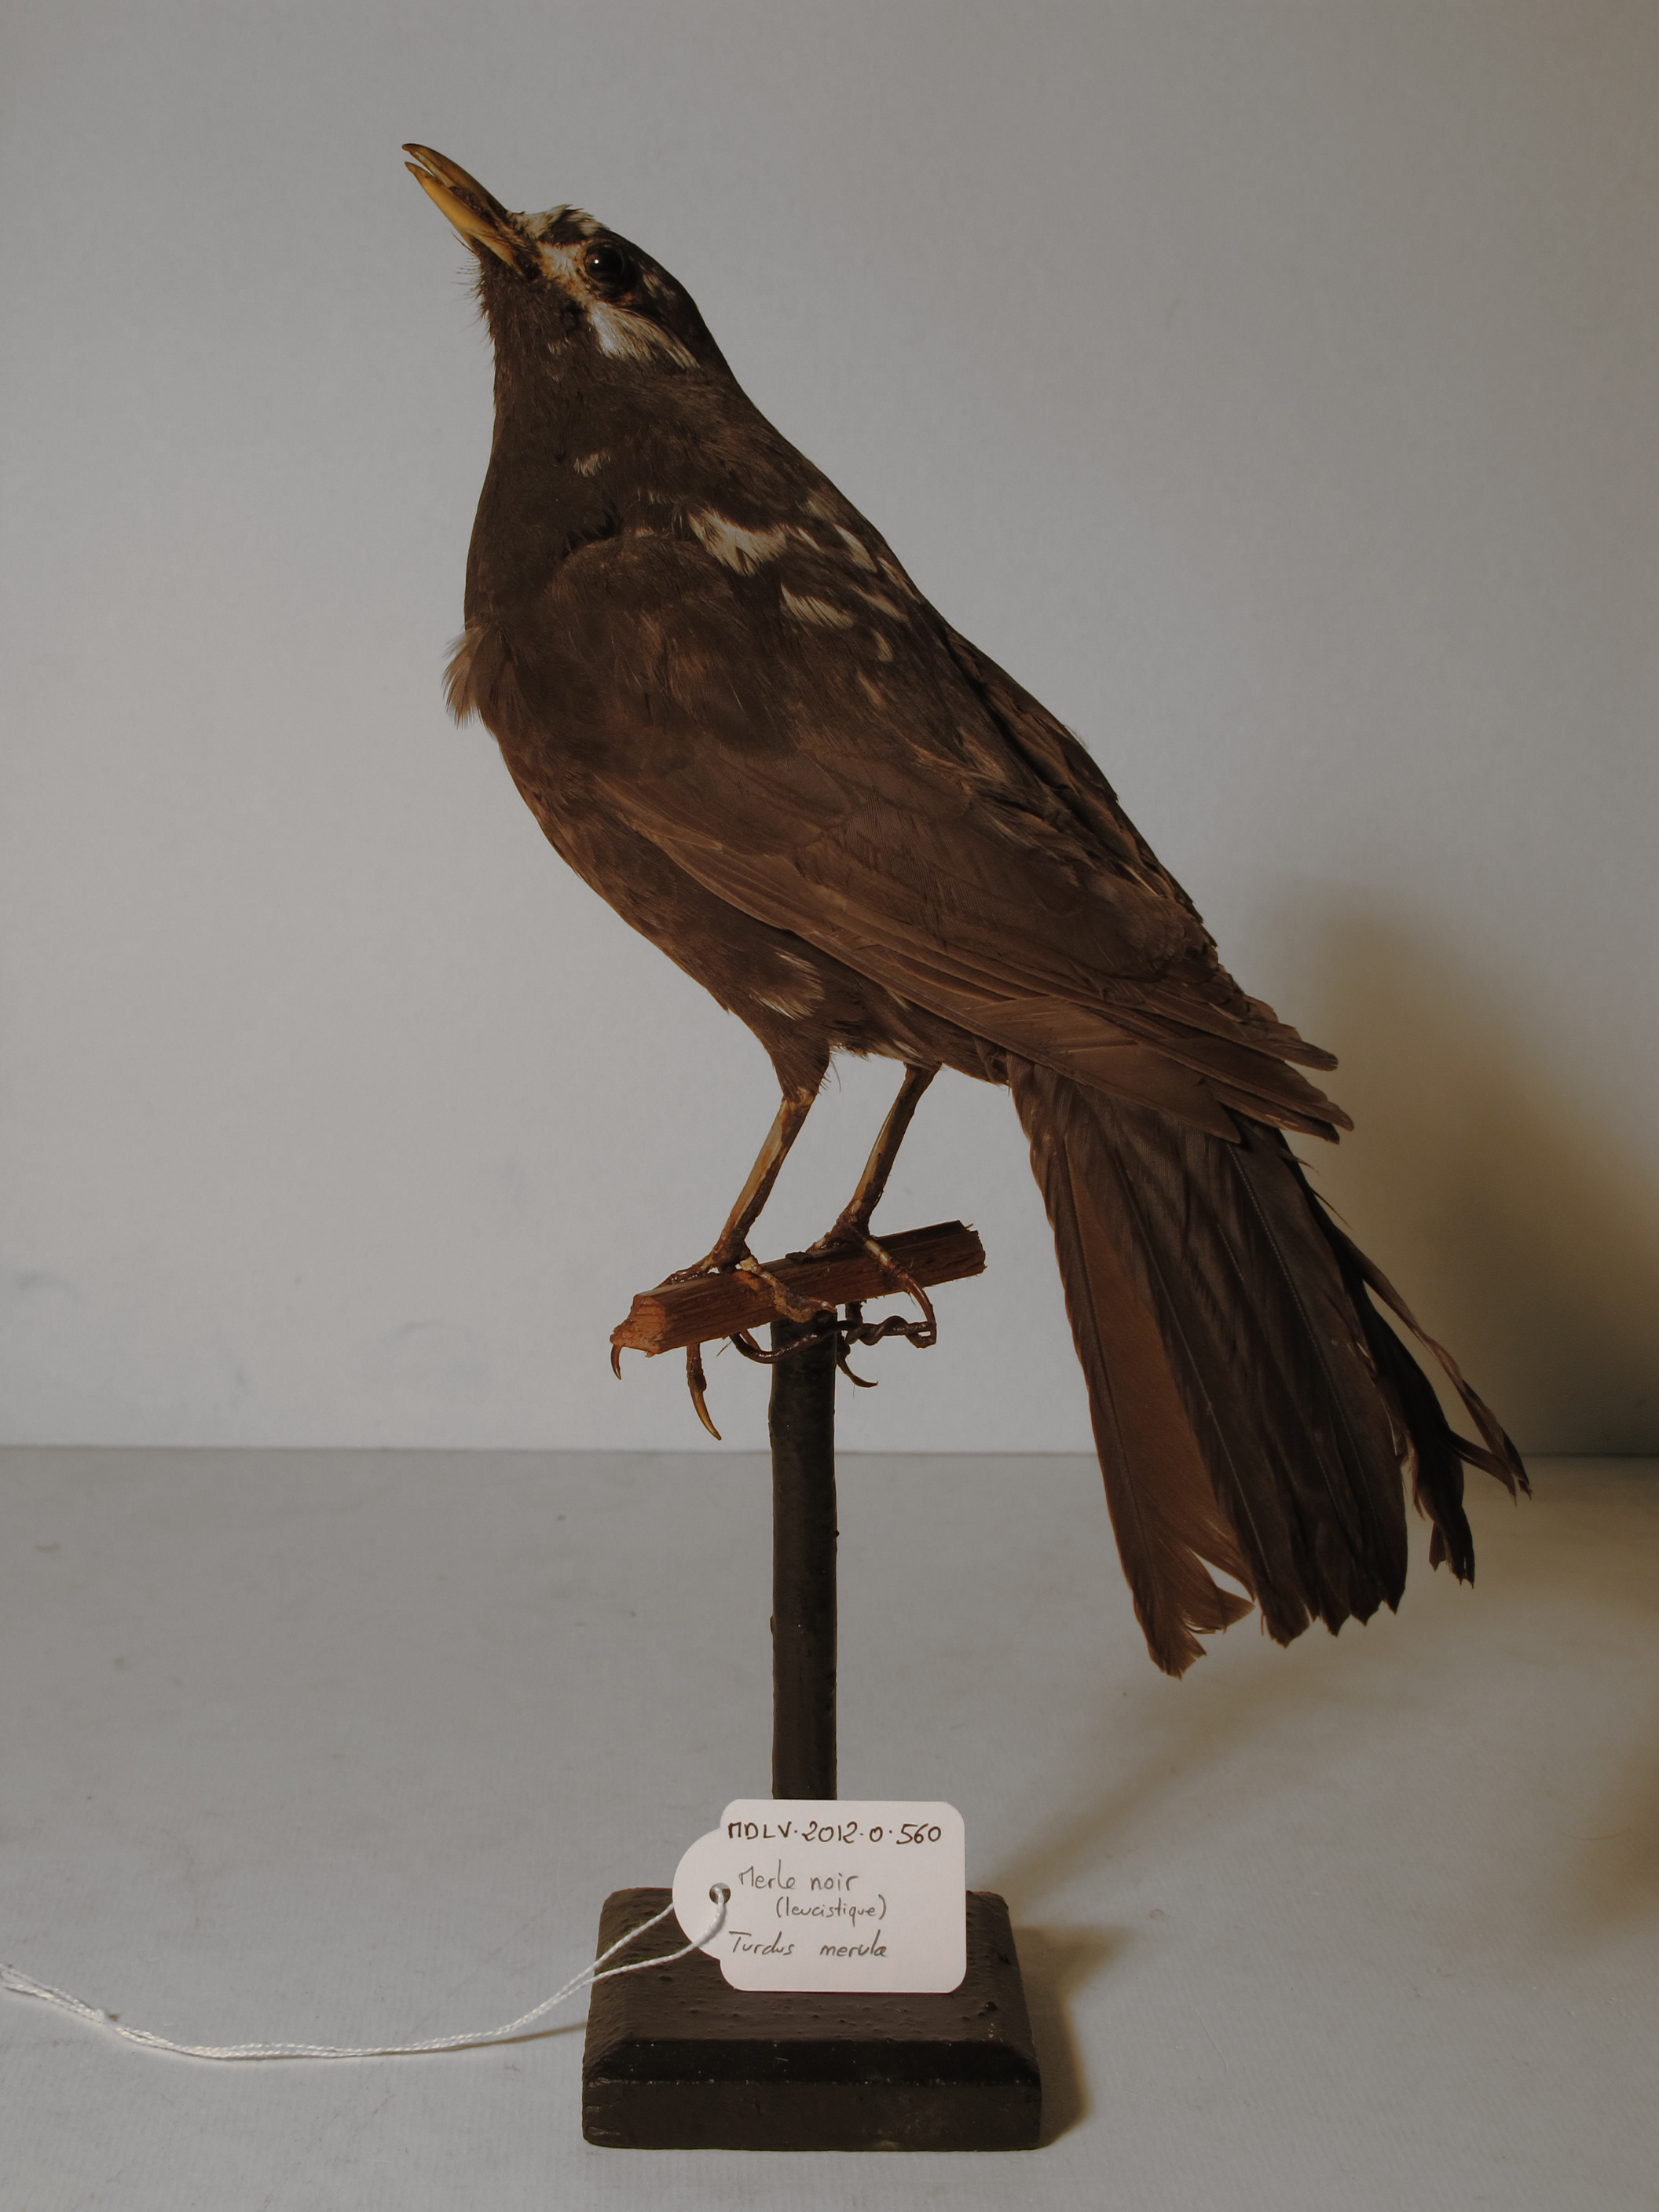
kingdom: Animalia
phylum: Chordata
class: Aves
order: Passeriformes
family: Turdidae
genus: Turdus
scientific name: Turdus merula
